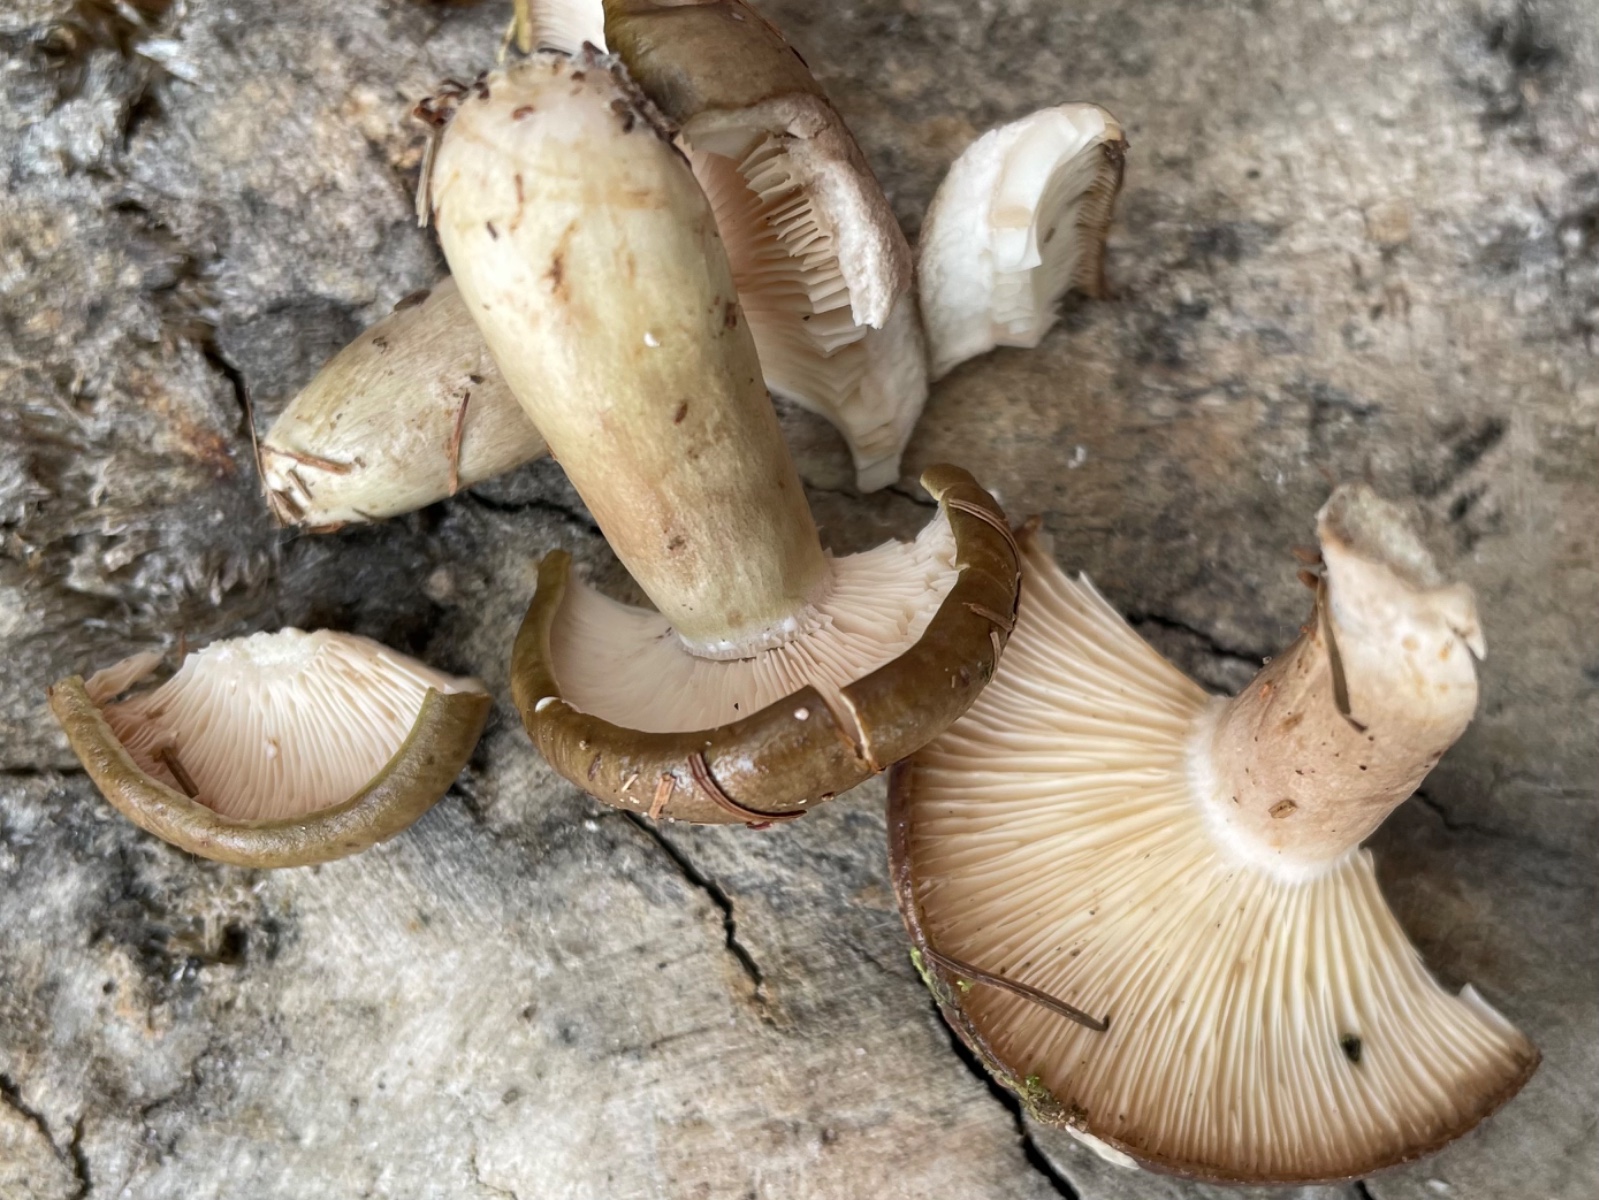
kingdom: Fungi
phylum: Basidiomycota
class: Agaricomycetes
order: Russulales
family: Russulaceae
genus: Lactarius
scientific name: Lactarius necator
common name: manddraber-mælkehat
